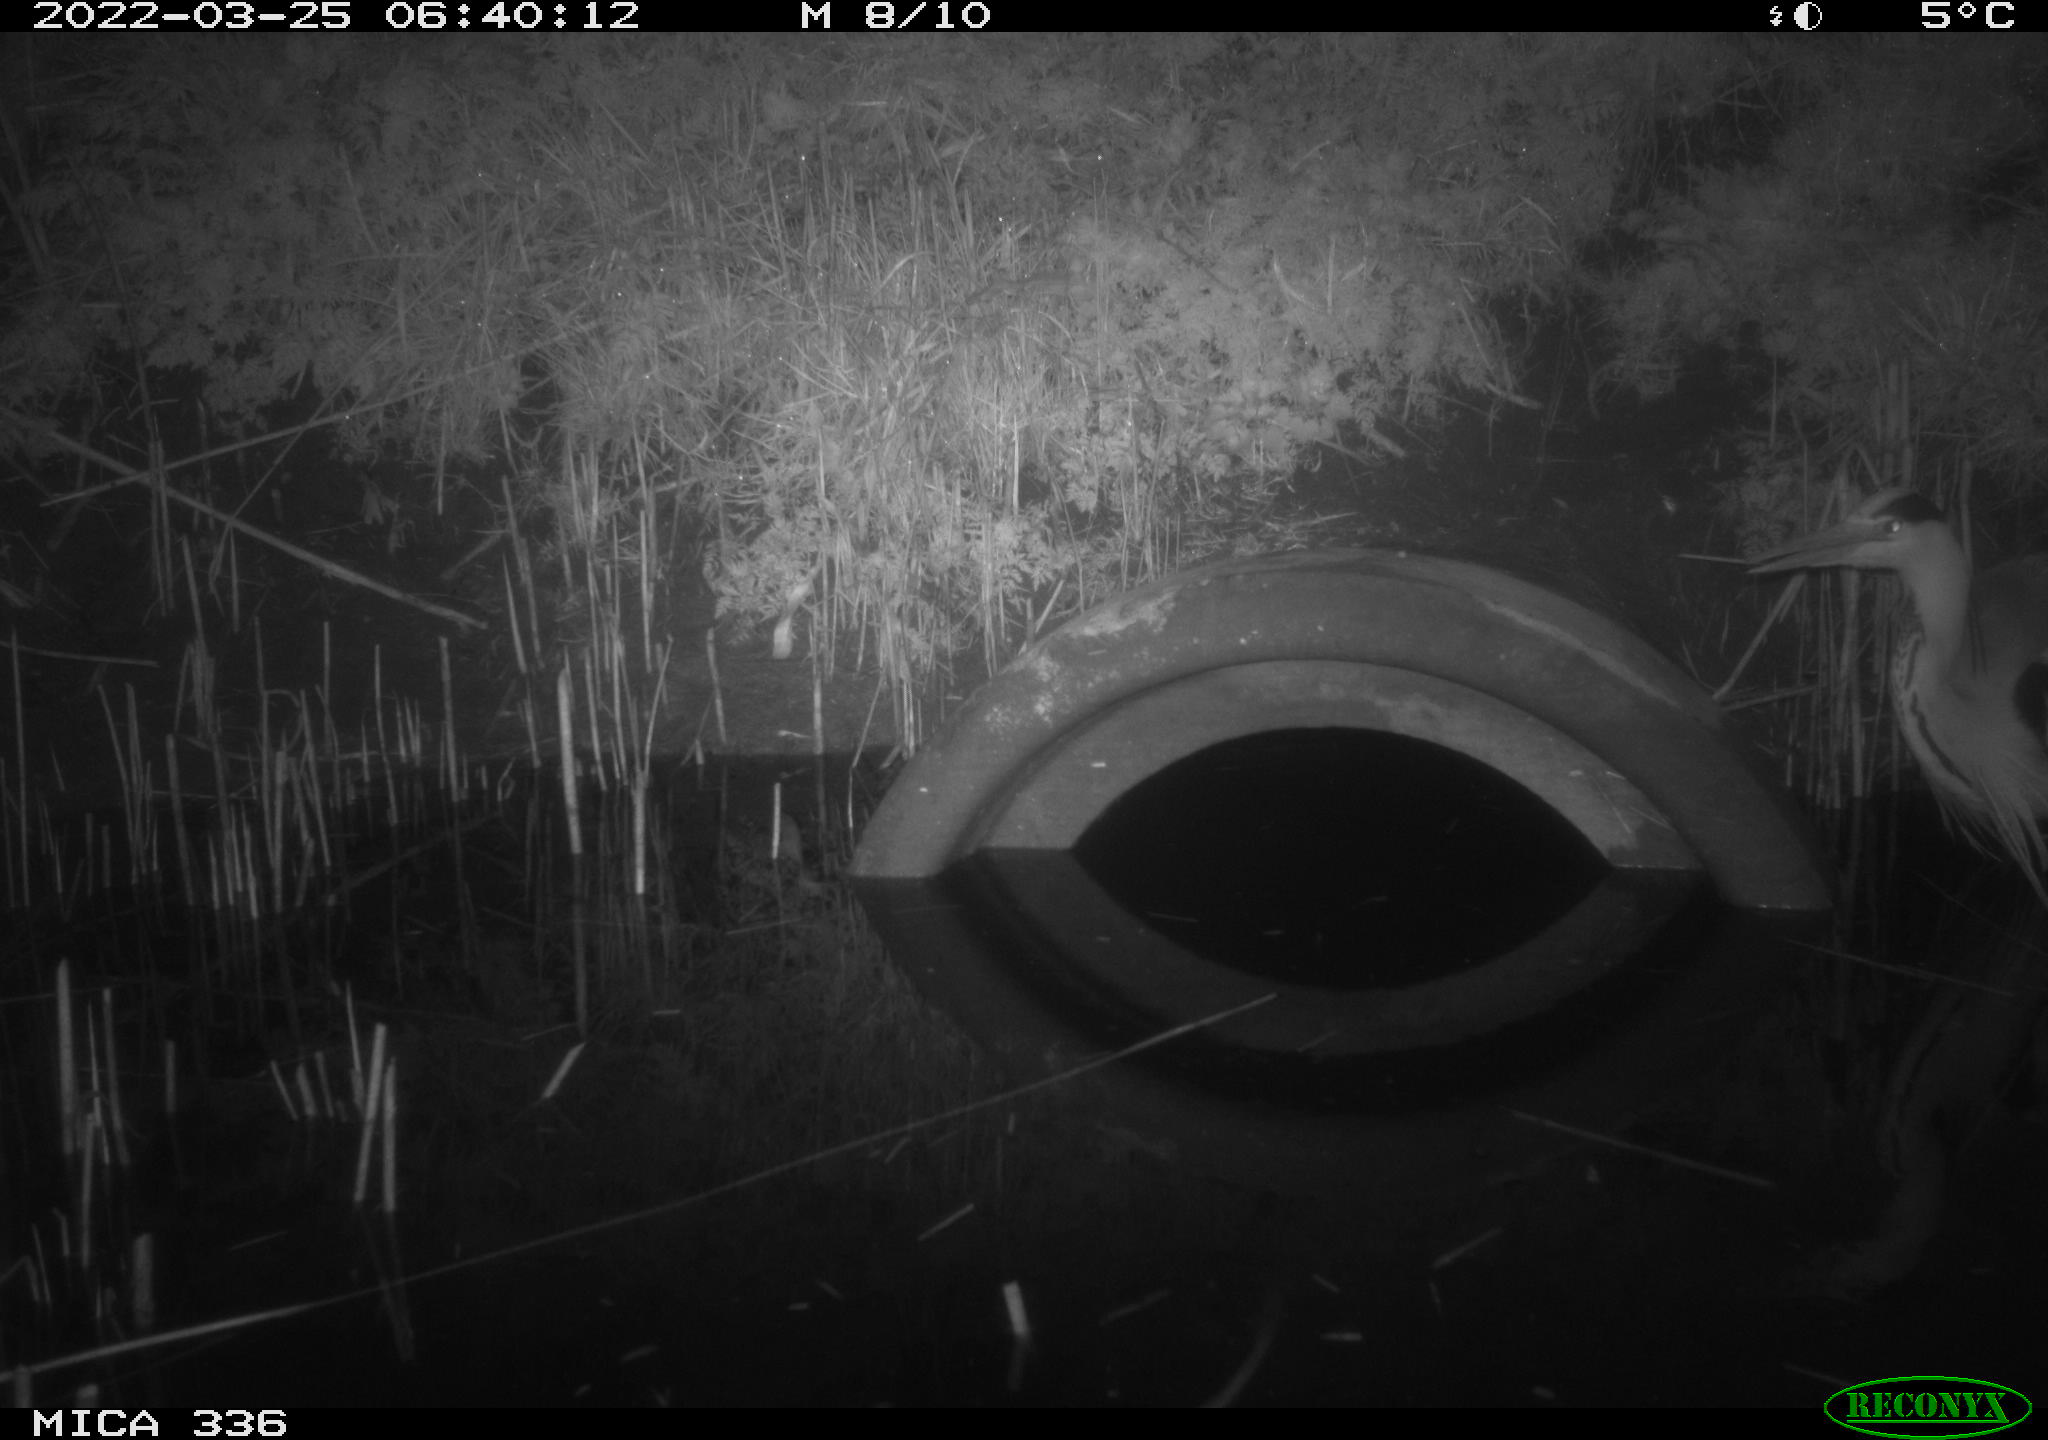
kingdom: Animalia
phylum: Chordata
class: Aves
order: Pelecaniformes
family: Ardeidae
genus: Ardea
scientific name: Ardea cinerea
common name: Grey heron
